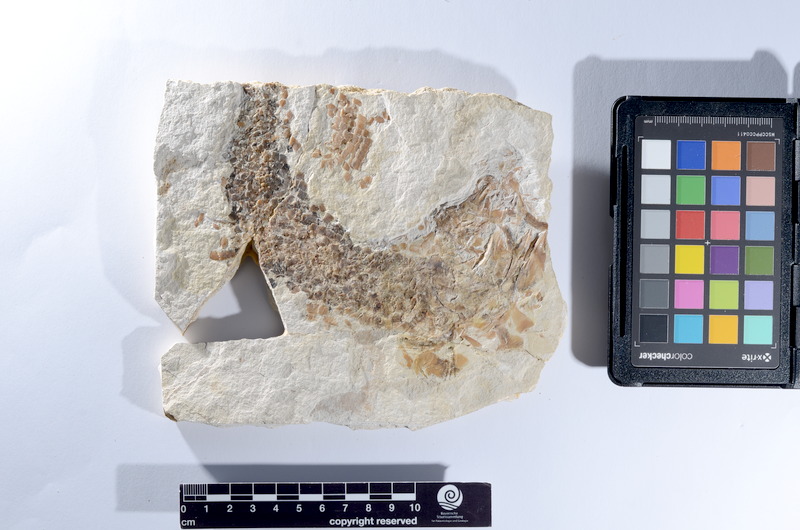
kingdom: Animalia
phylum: Chordata
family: Pholidophoridae
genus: Pholidophorus
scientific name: Pholidophorus
